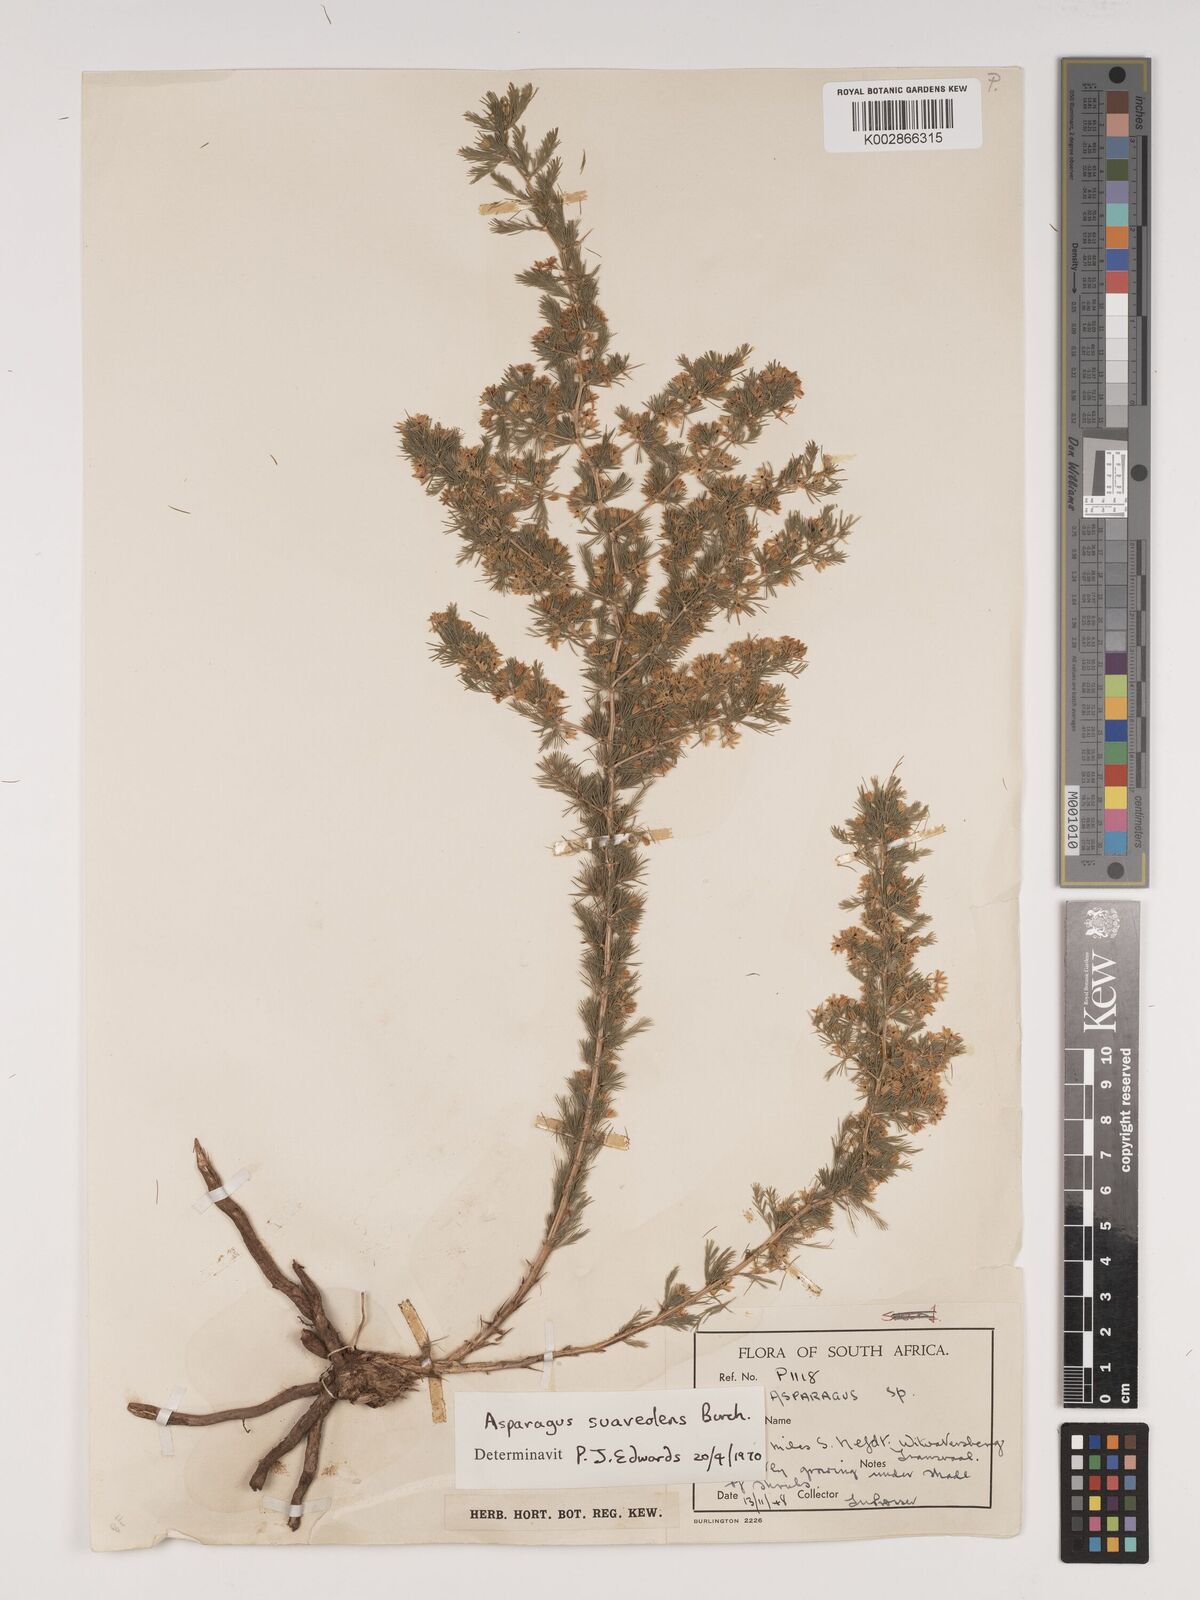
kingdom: Plantae
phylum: Tracheophyta
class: Liliopsida
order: Asparagales
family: Asparagaceae
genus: Asparagus
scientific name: Asparagus suaveolens
